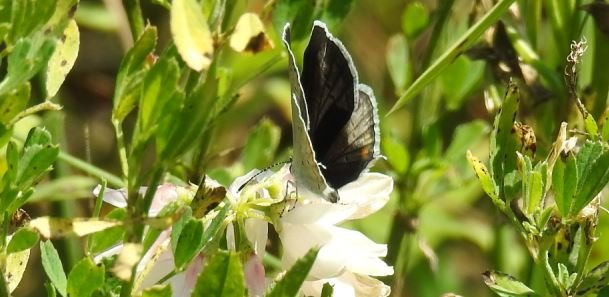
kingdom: Animalia
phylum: Arthropoda
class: Insecta
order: Lepidoptera
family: Lycaenidae
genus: Elkalyce
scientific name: Elkalyce comyntas
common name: Eastern Tailed-Blue
